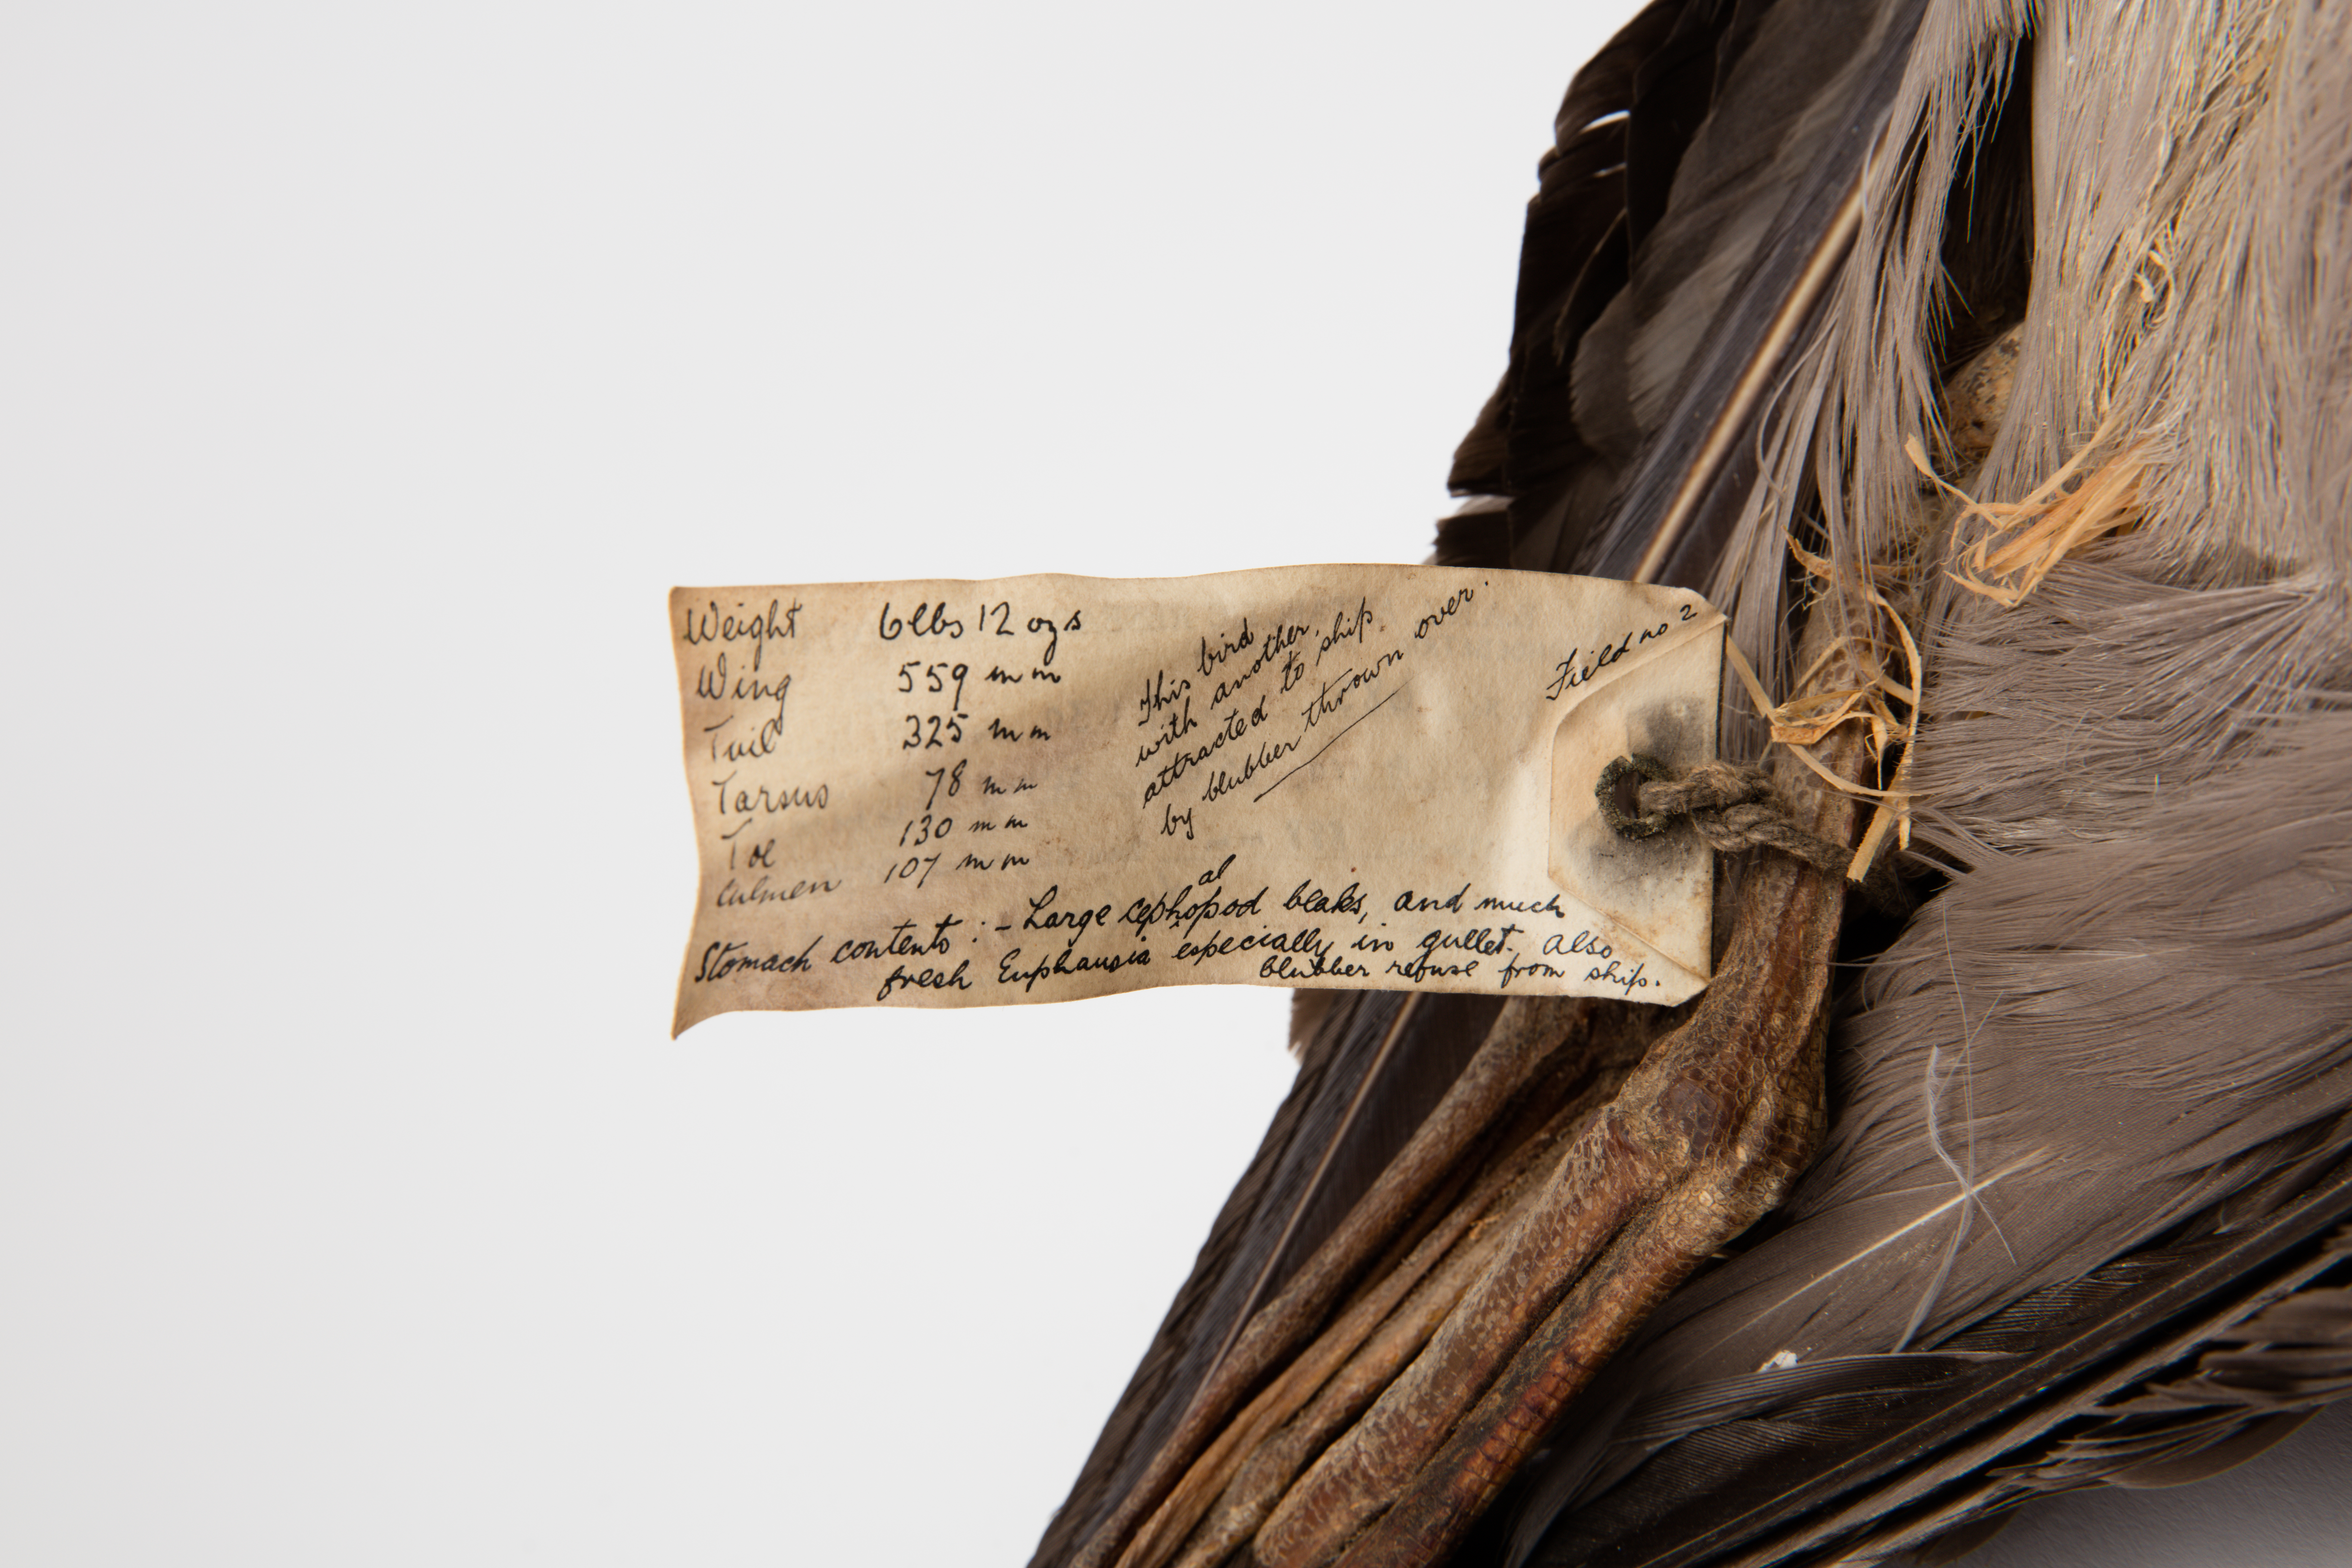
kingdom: Animalia
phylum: Chordata
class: Aves
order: Procellariiformes
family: Diomedeidae
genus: Phoebetria
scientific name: Phoebetria palpebrata
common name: Light-mantled albatross
